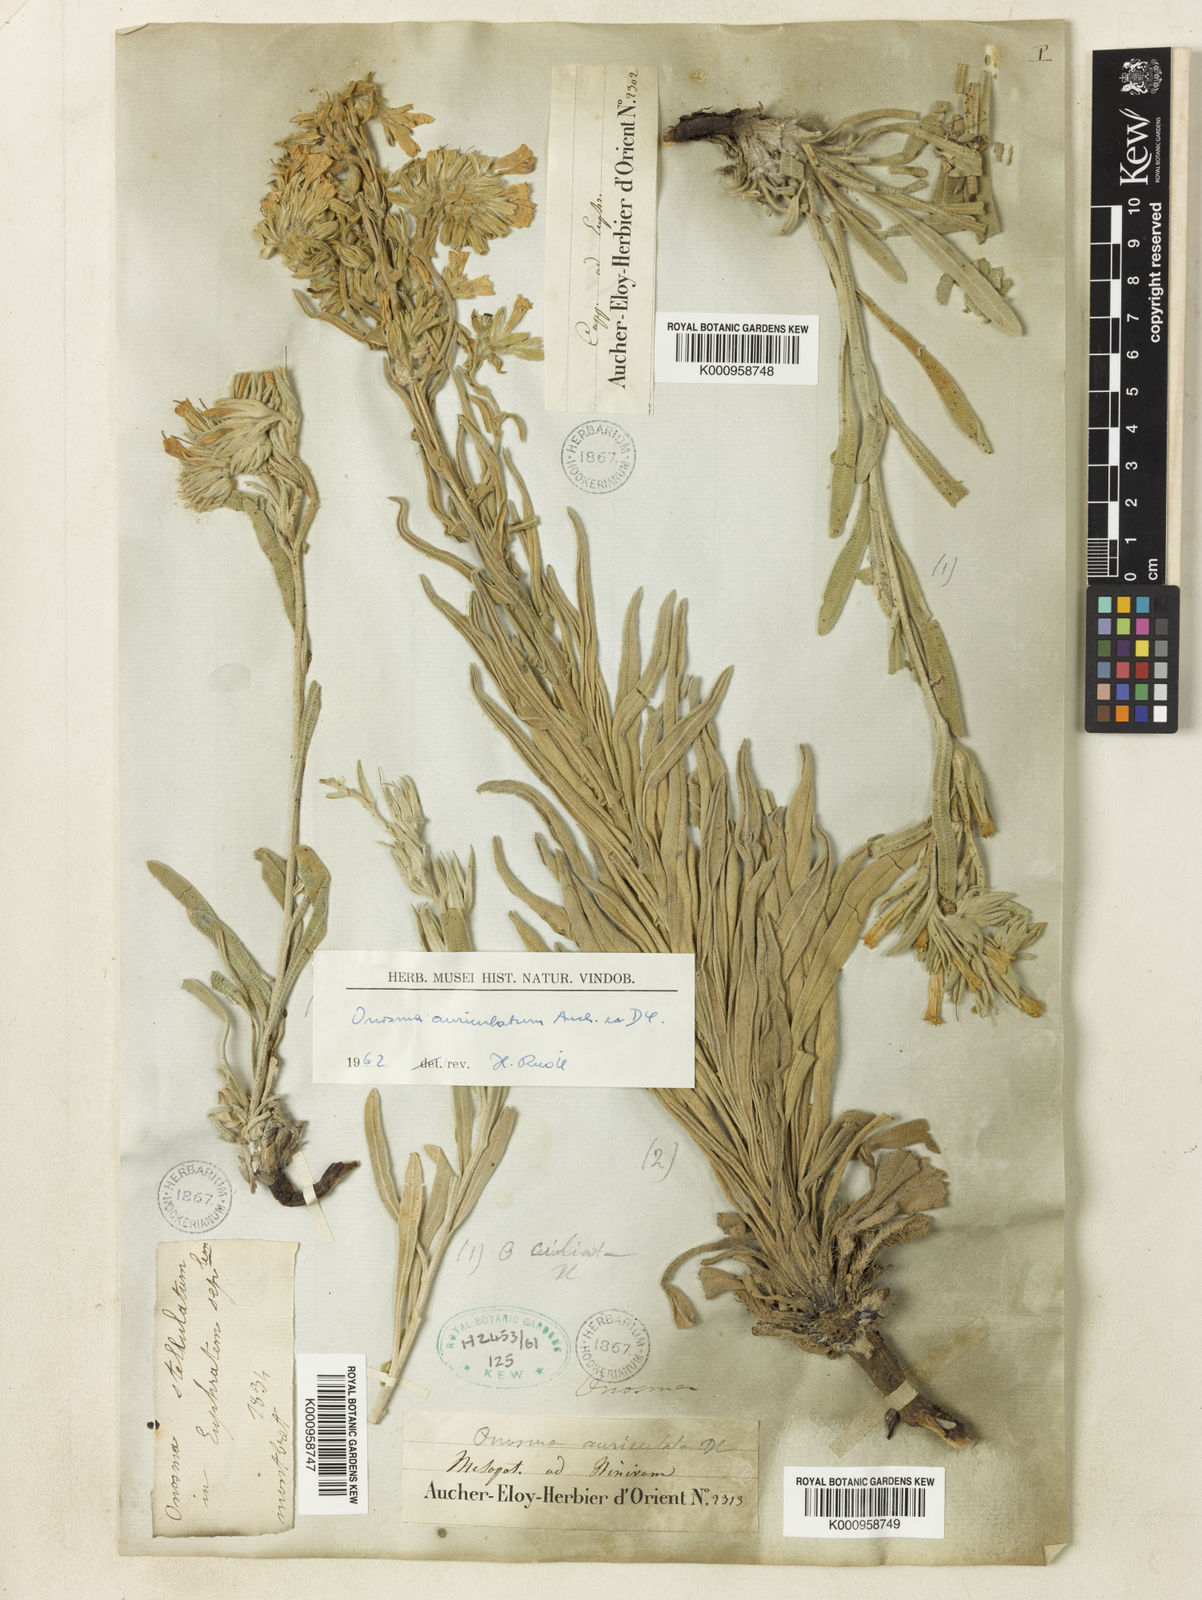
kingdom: Plantae
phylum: Tracheophyta
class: Magnoliopsida
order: Boraginales
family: Boraginaceae
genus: Onosma
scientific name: Onosma auriculata
